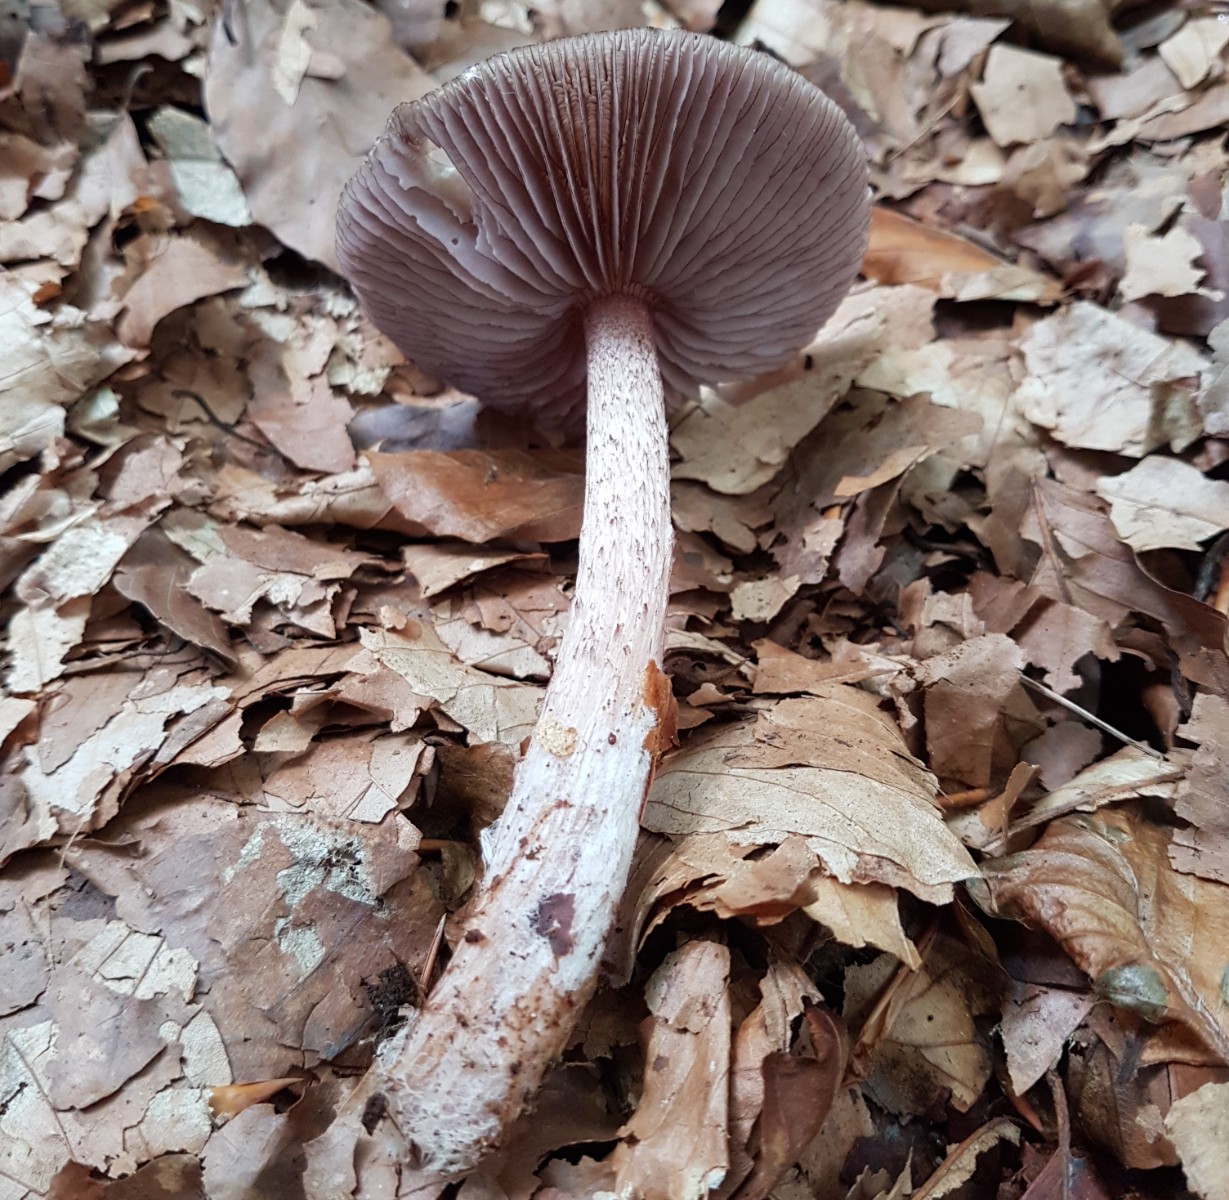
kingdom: Fungi
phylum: Basidiomycota
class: Agaricomycetes
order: Agaricales
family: Mycenaceae
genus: Mycena
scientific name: Mycena pelianthina
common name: mørkbladet huesvamp
